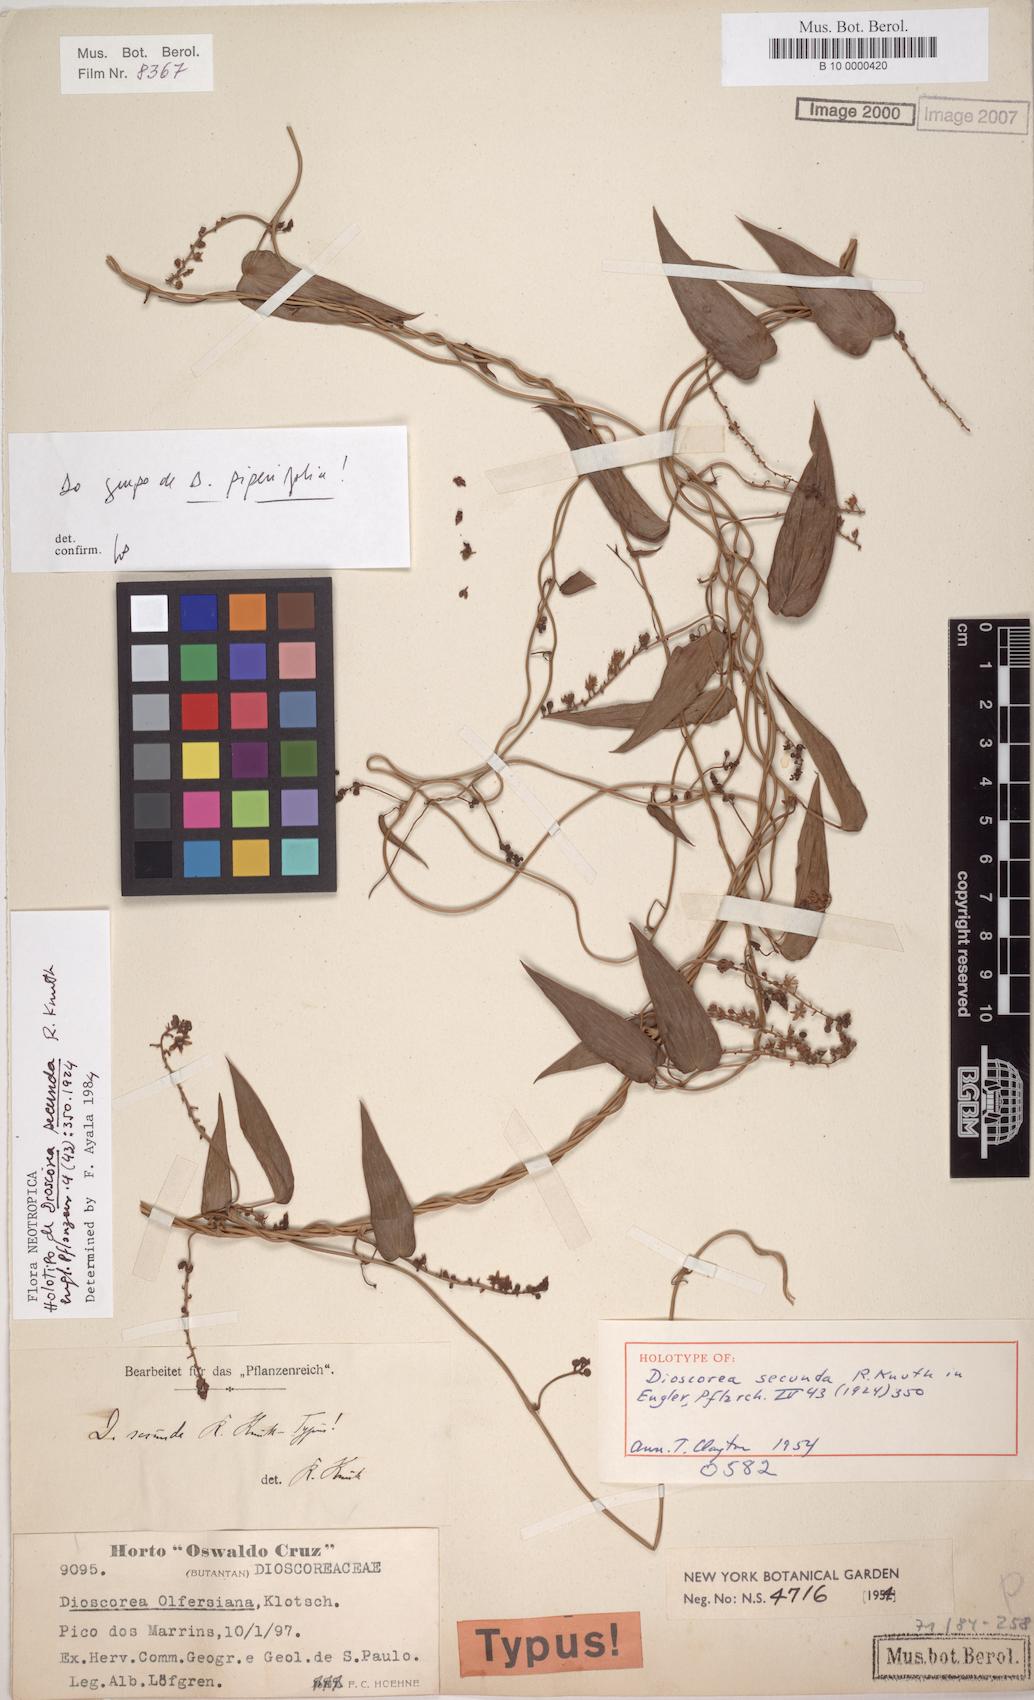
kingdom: Plantae
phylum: Tracheophyta
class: Liliopsida
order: Dioscoreales
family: Dioscoreaceae
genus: Dioscorea
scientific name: Dioscorea piperifolia
